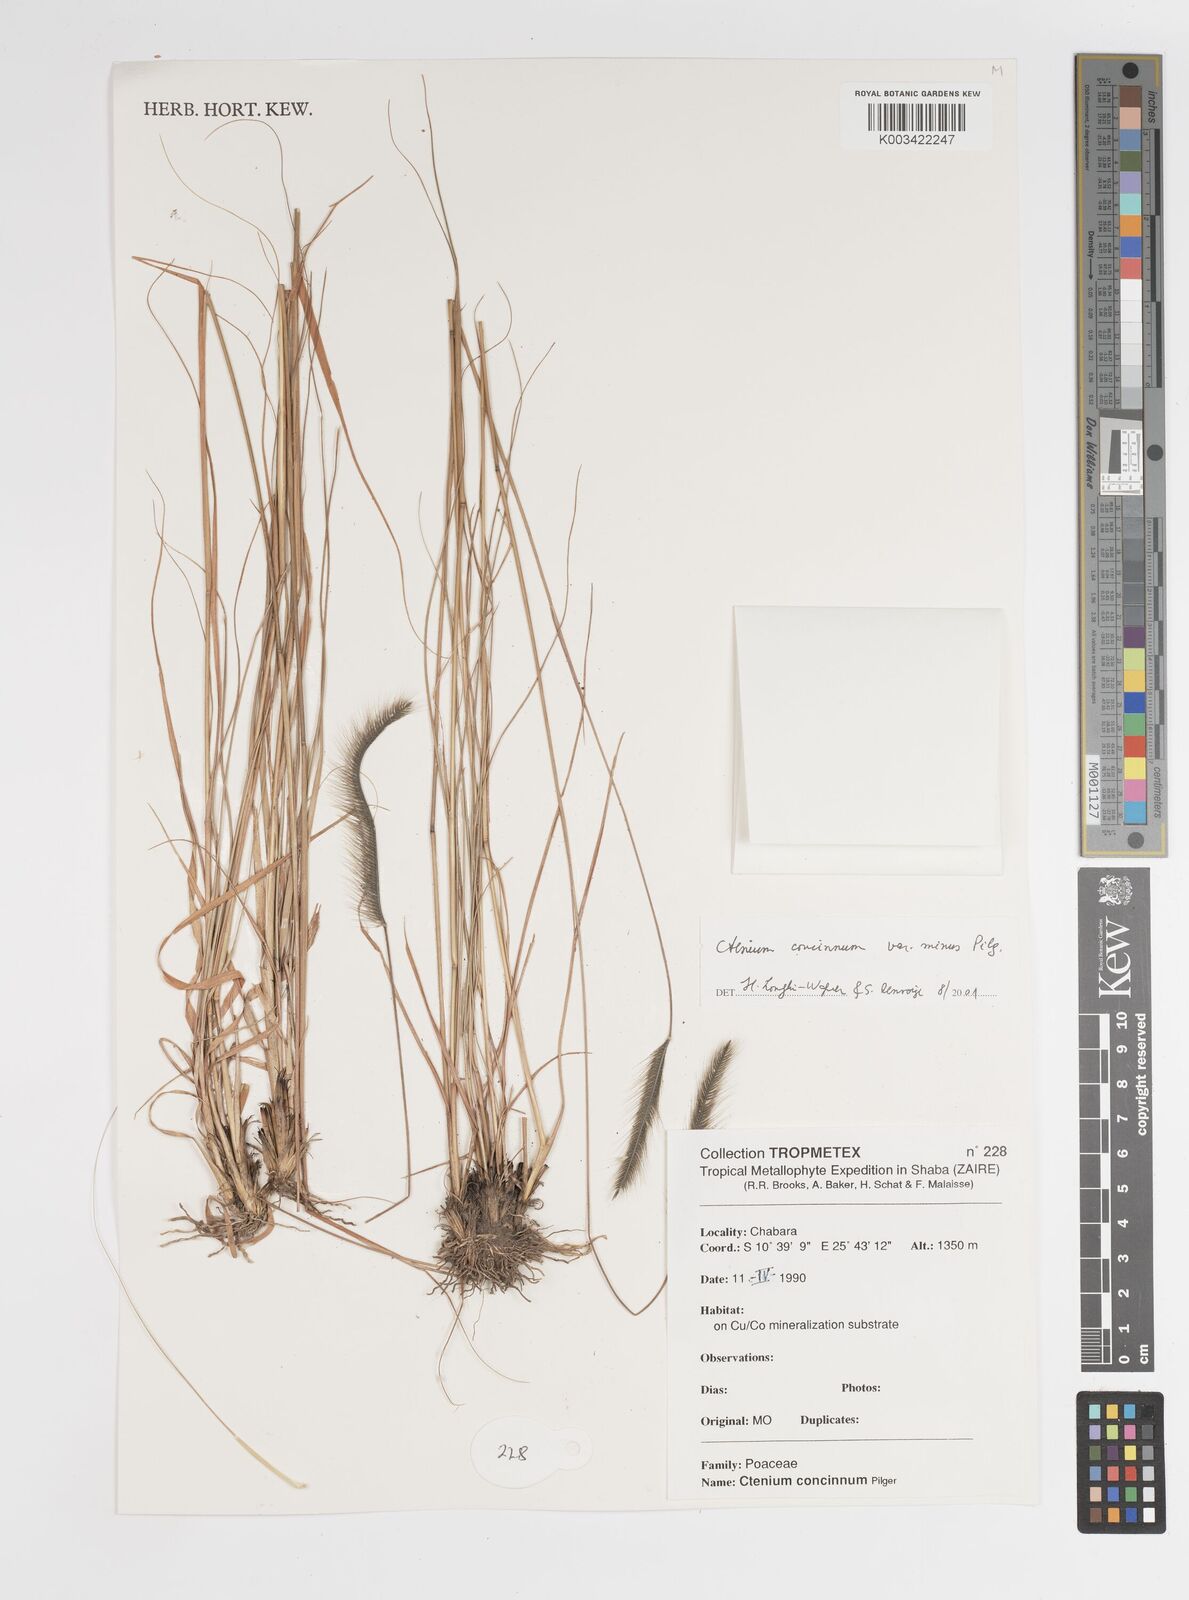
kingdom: Plantae
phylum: Tracheophyta
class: Liliopsida
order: Poales
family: Poaceae
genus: Ctenium
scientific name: Ctenium concinnum
